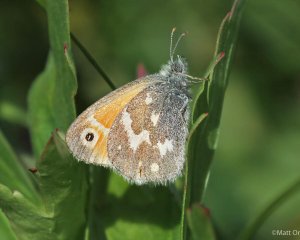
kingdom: Animalia
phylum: Arthropoda
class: Insecta
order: Lepidoptera
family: Nymphalidae
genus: Coenonympha
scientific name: Coenonympha tullia
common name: Large Heath
